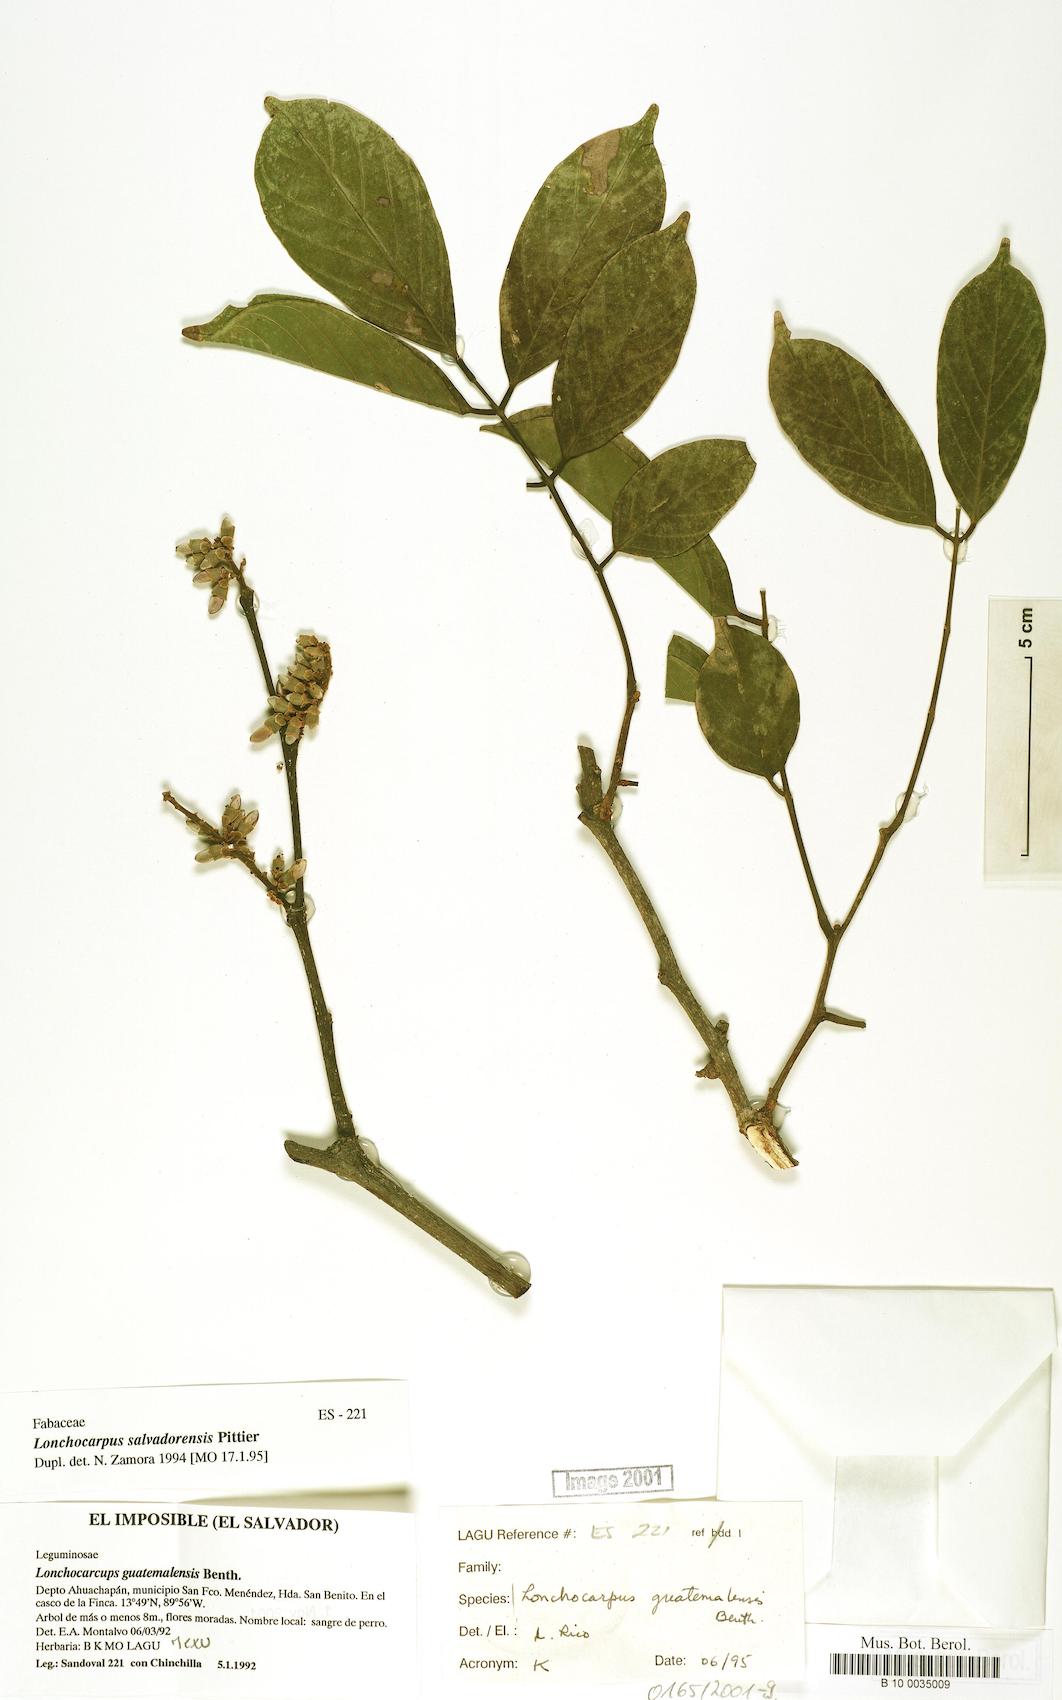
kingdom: Plantae
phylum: Tracheophyta
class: Magnoliopsida
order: Fabales
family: Fabaceae
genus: Lonchocarpus
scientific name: Lonchocarpus guatemalensis
